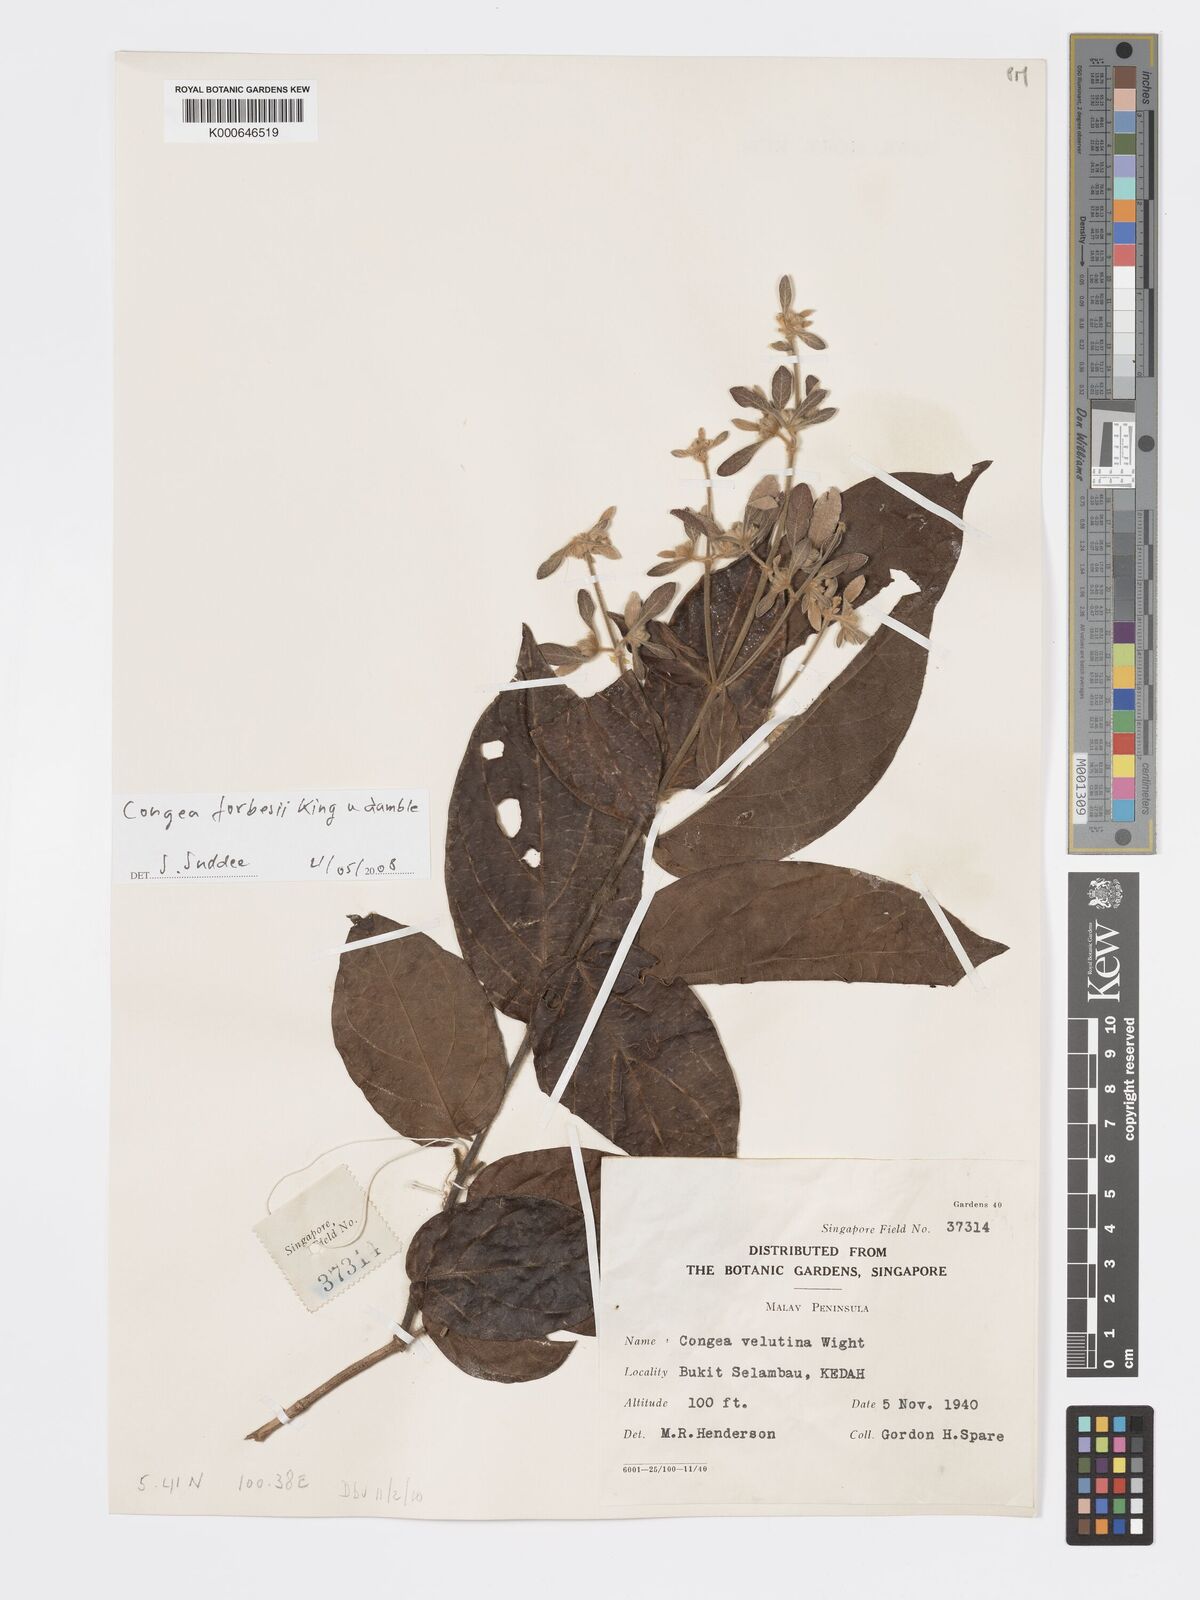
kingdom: Plantae
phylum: Tracheophyta
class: Magnoliopsida
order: Lamiales
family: Lamiaceae
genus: Congea
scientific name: Congea
